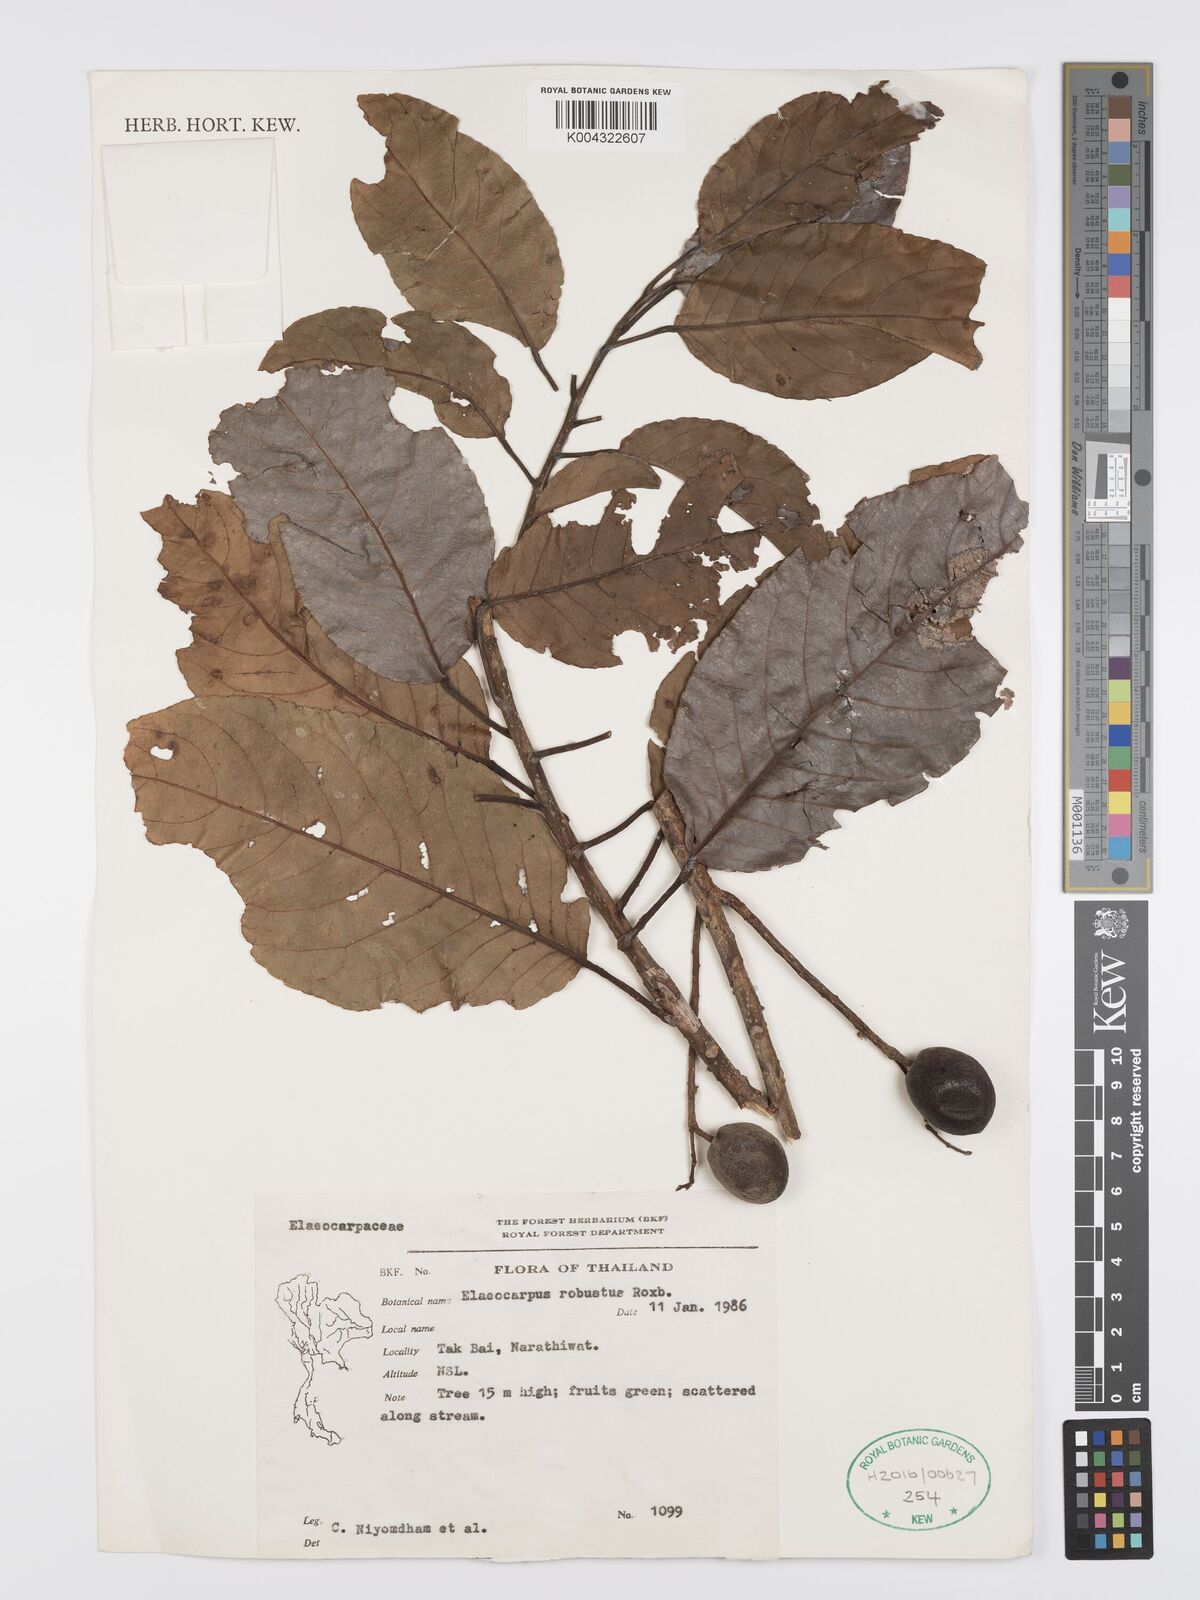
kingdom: Plantae
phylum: Tracheophyta
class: Magnoliopsida
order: Oxalidales
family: Elaeocarpaceae
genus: Elaeocarpus
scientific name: Elaeocarpus robustus
